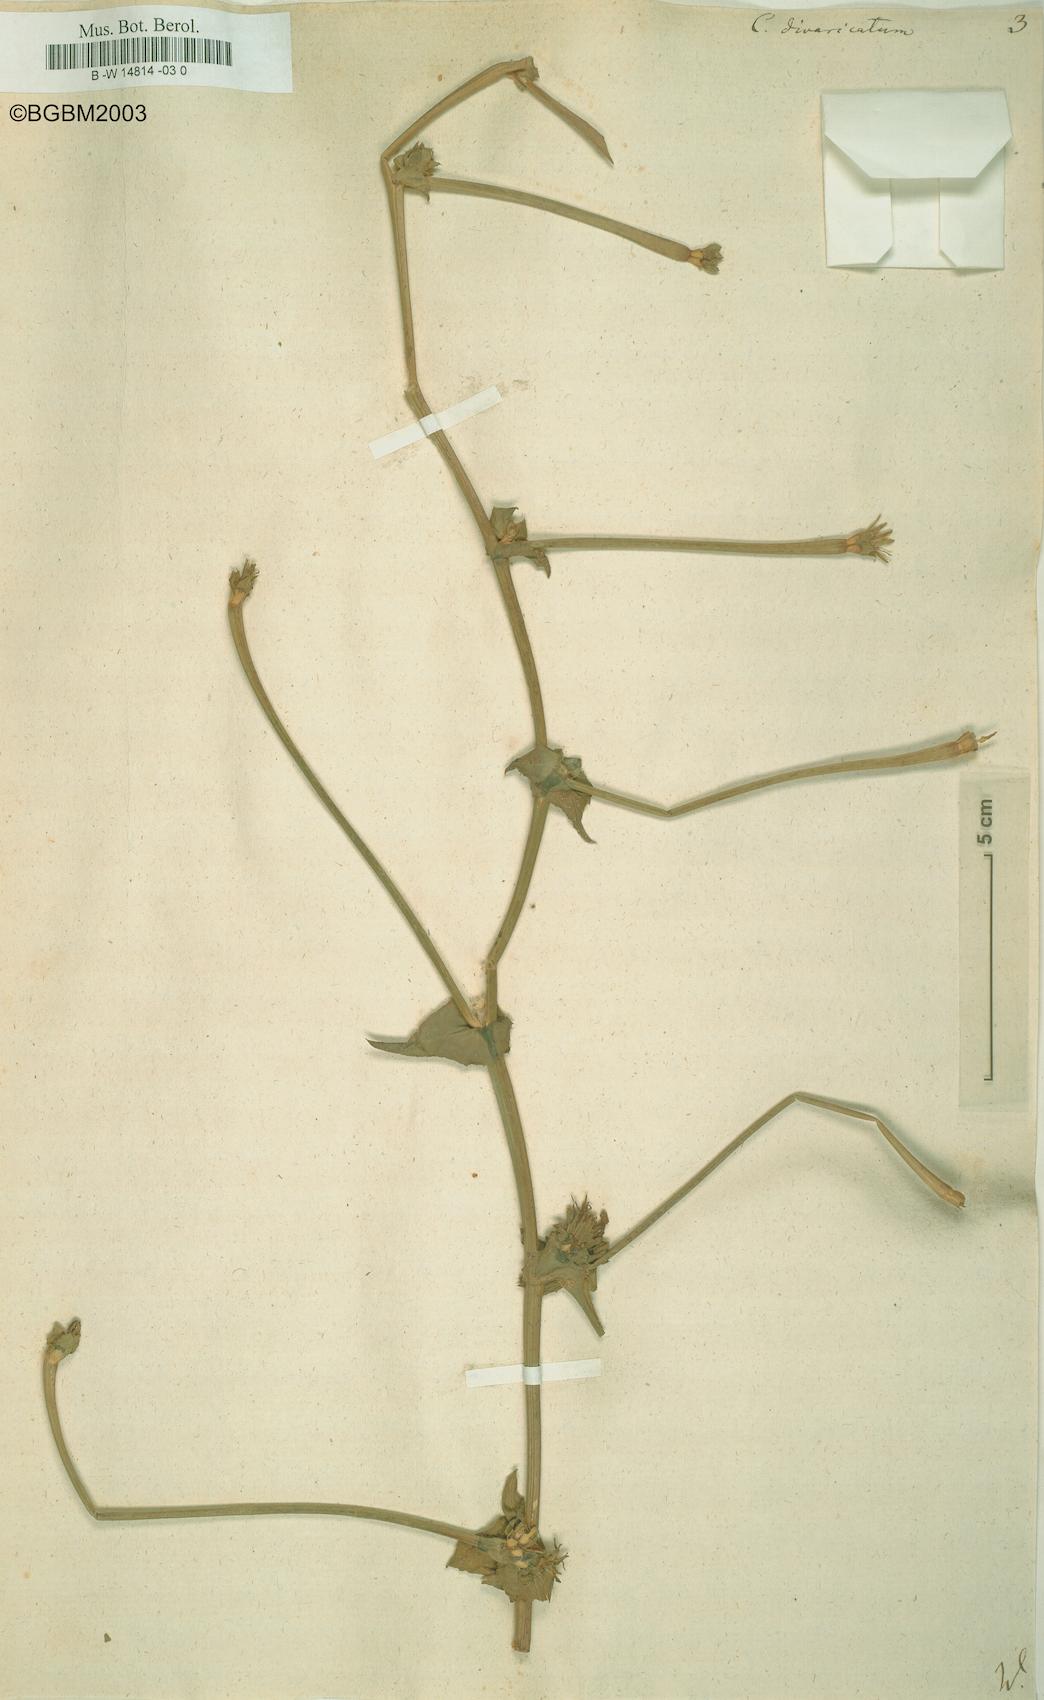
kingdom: Plantae
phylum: Tracheophyta
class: Magnoliopsida
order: Asterales
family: Asteraceae
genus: Cichorium
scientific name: Cichorium
